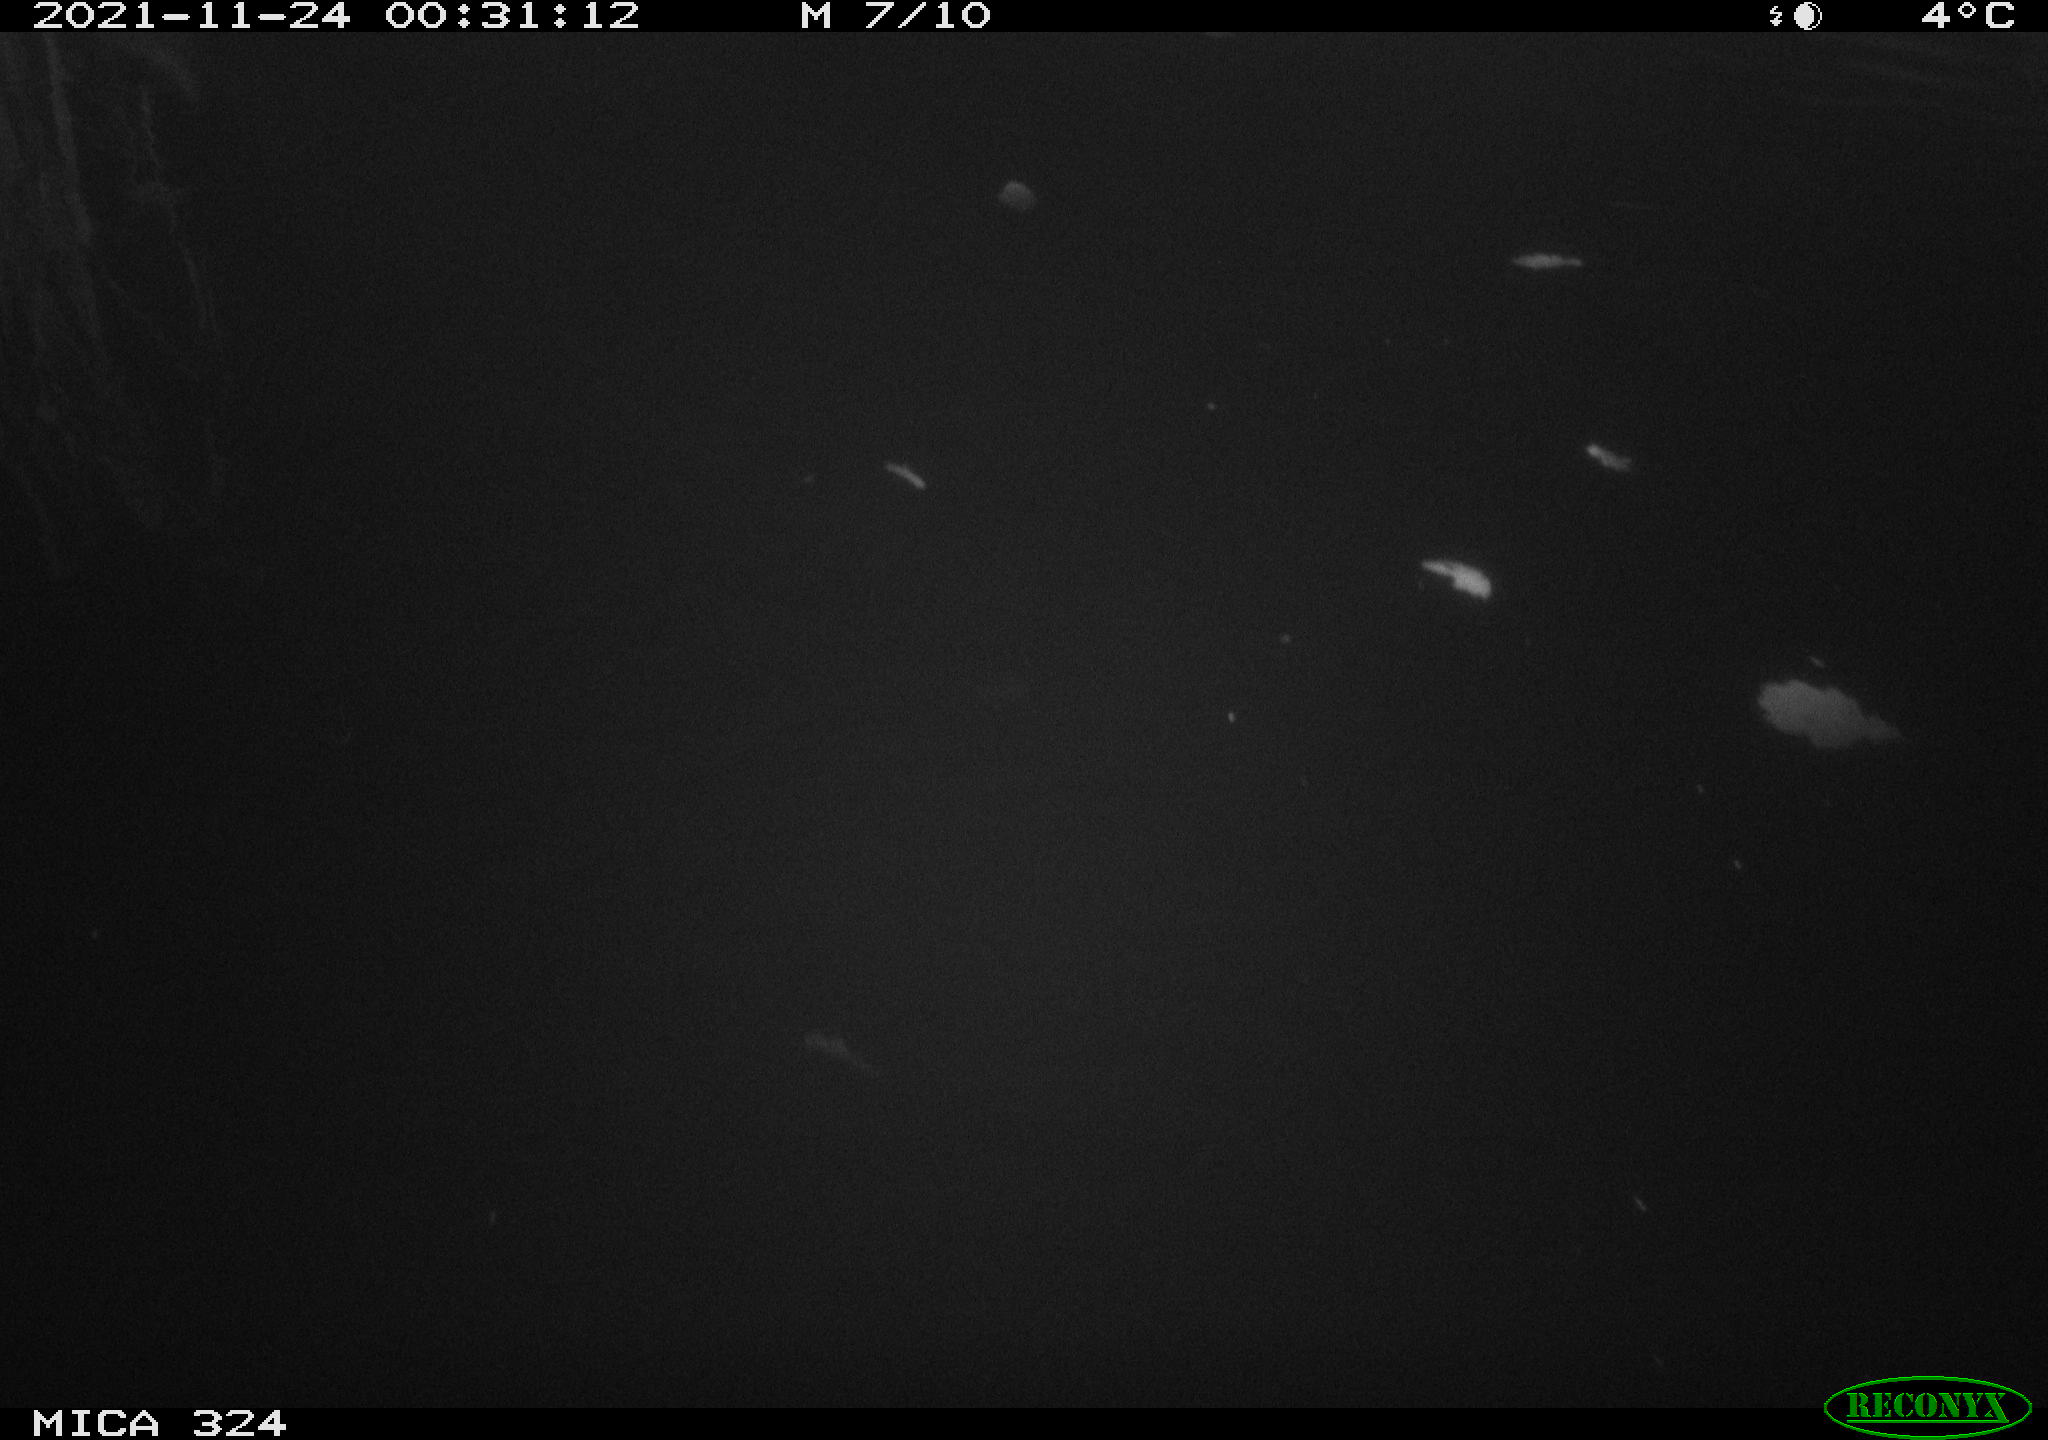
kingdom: Animalia
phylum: Chordata
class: Mammalia
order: Rodentia
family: Cricetidae
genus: Ondatra
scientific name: Ondatra zibethicus
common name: Muskrat
